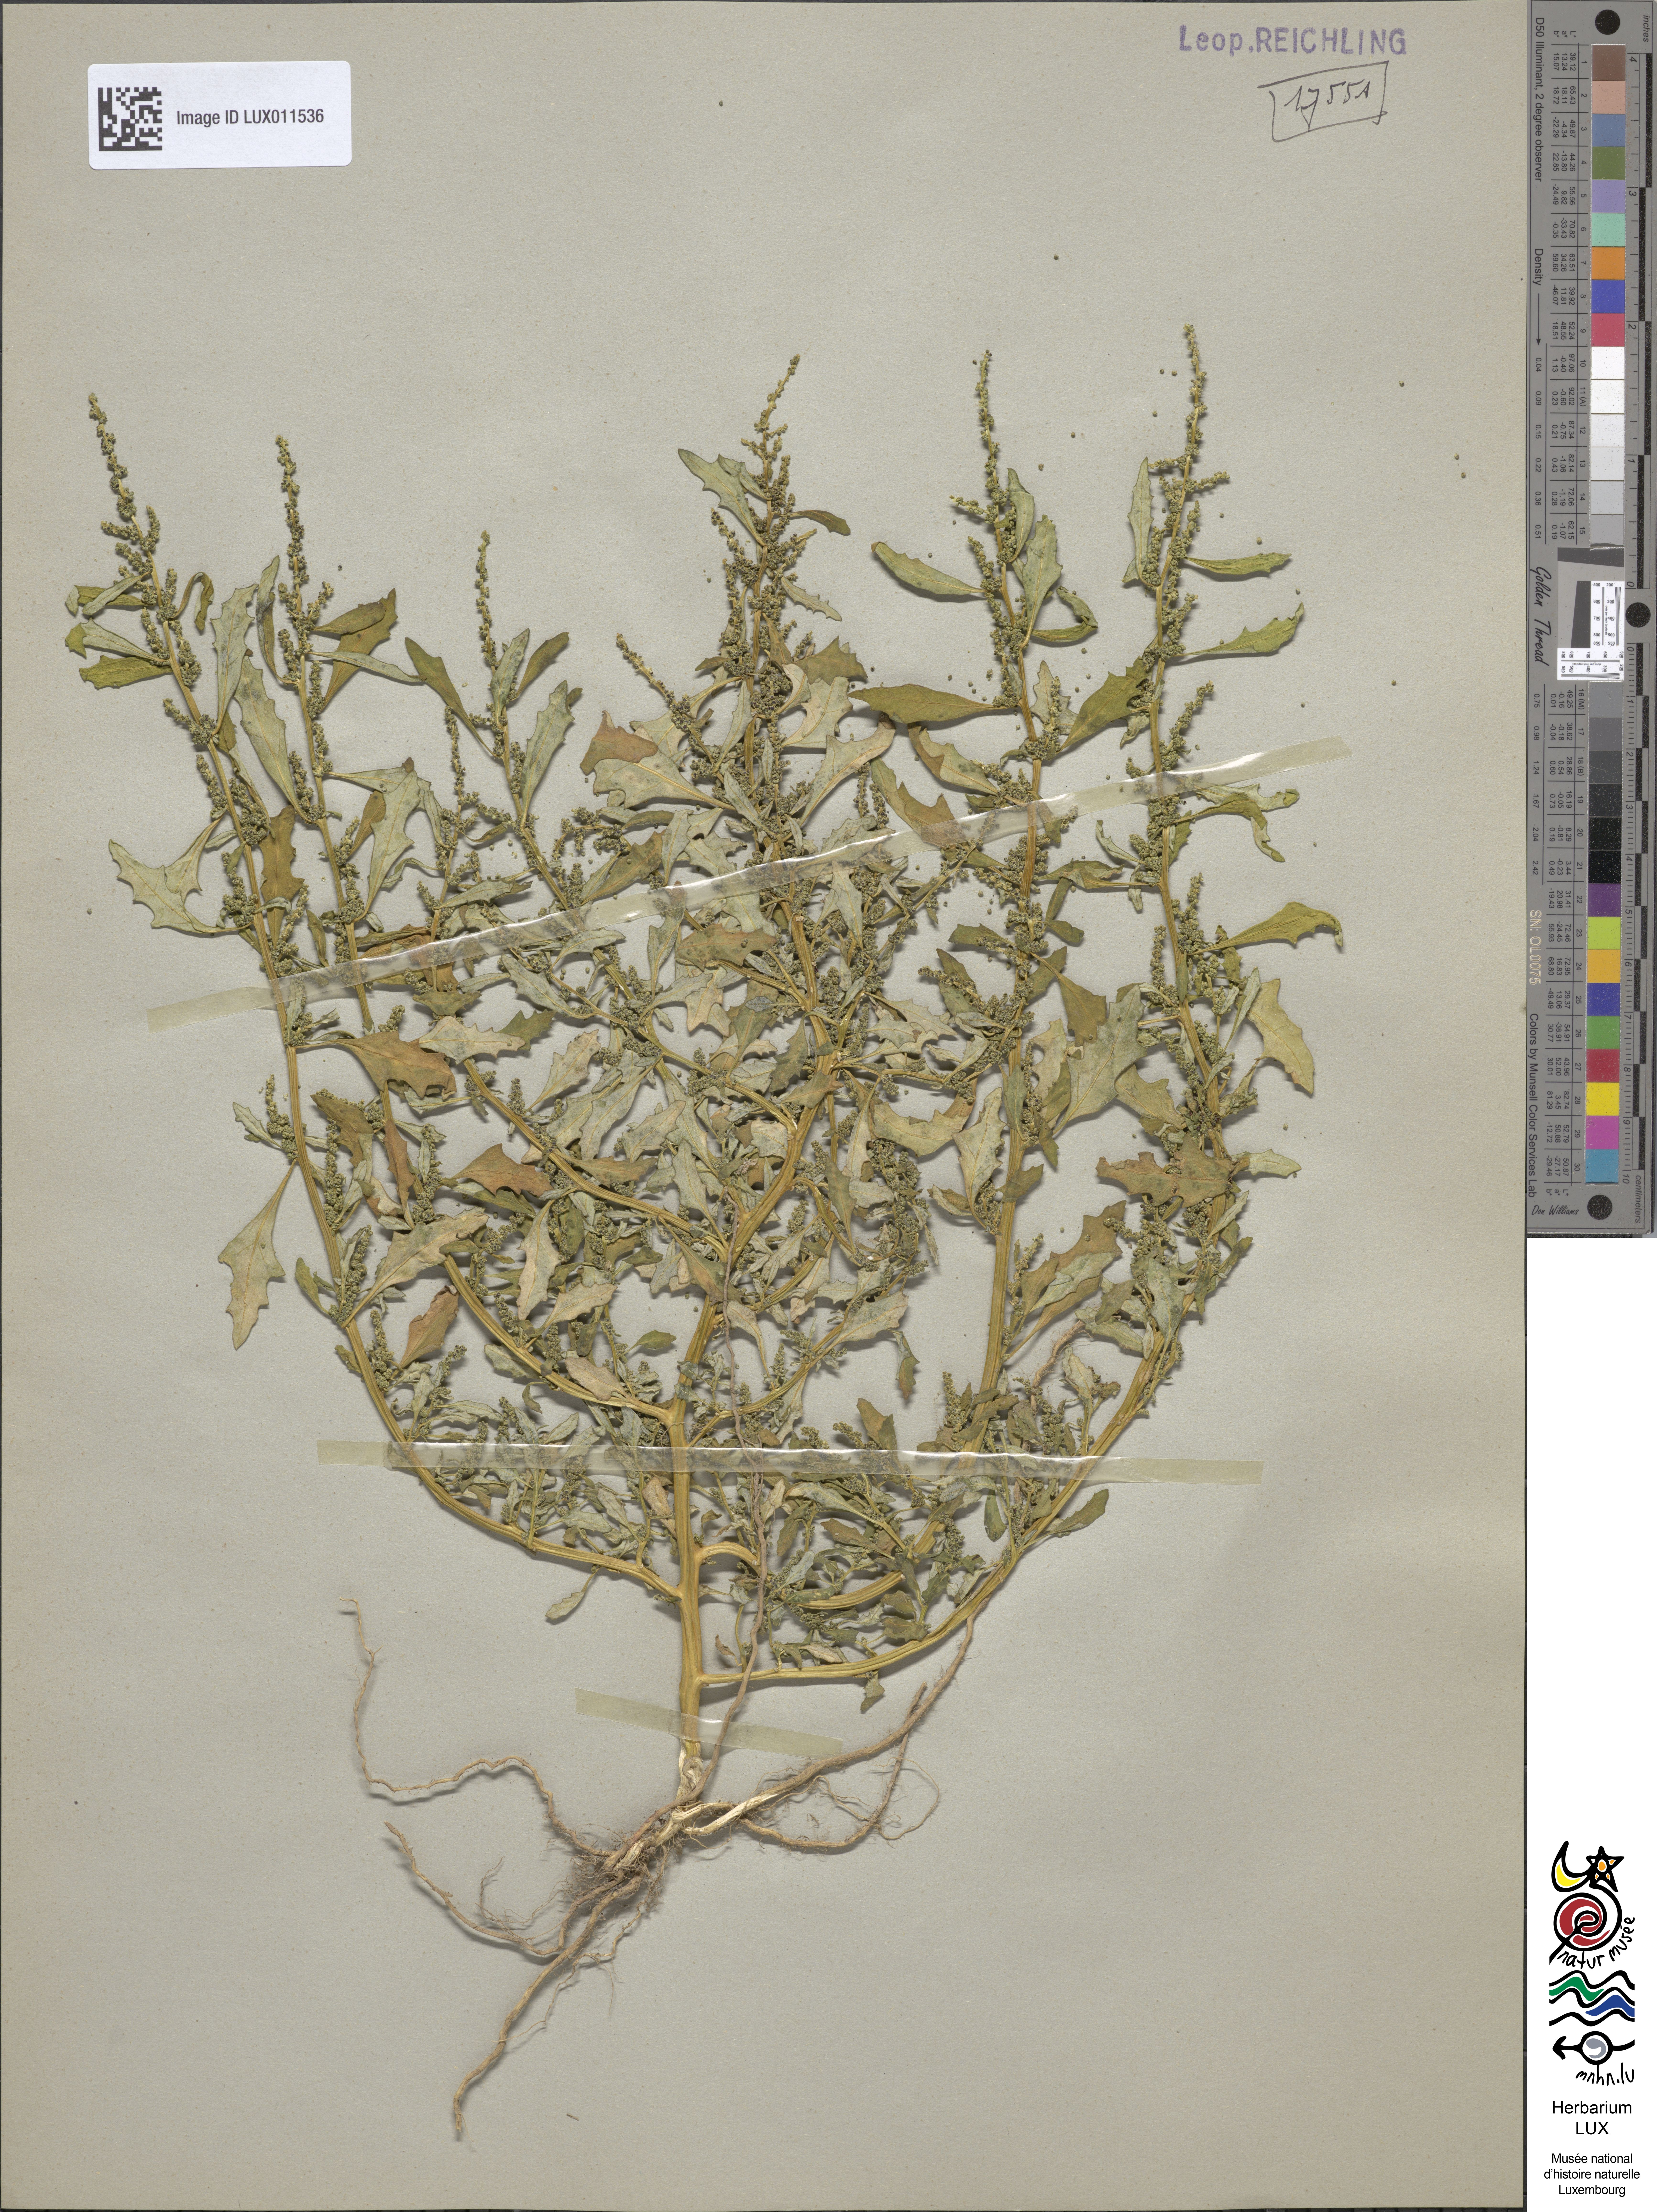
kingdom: Plantae
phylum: Tracheophyta
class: Magnoliopsida
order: Caryophyllales
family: Amaranthaceae
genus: Oxybasis
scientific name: Oxybasis glauca
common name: Glaucous goosefoot
